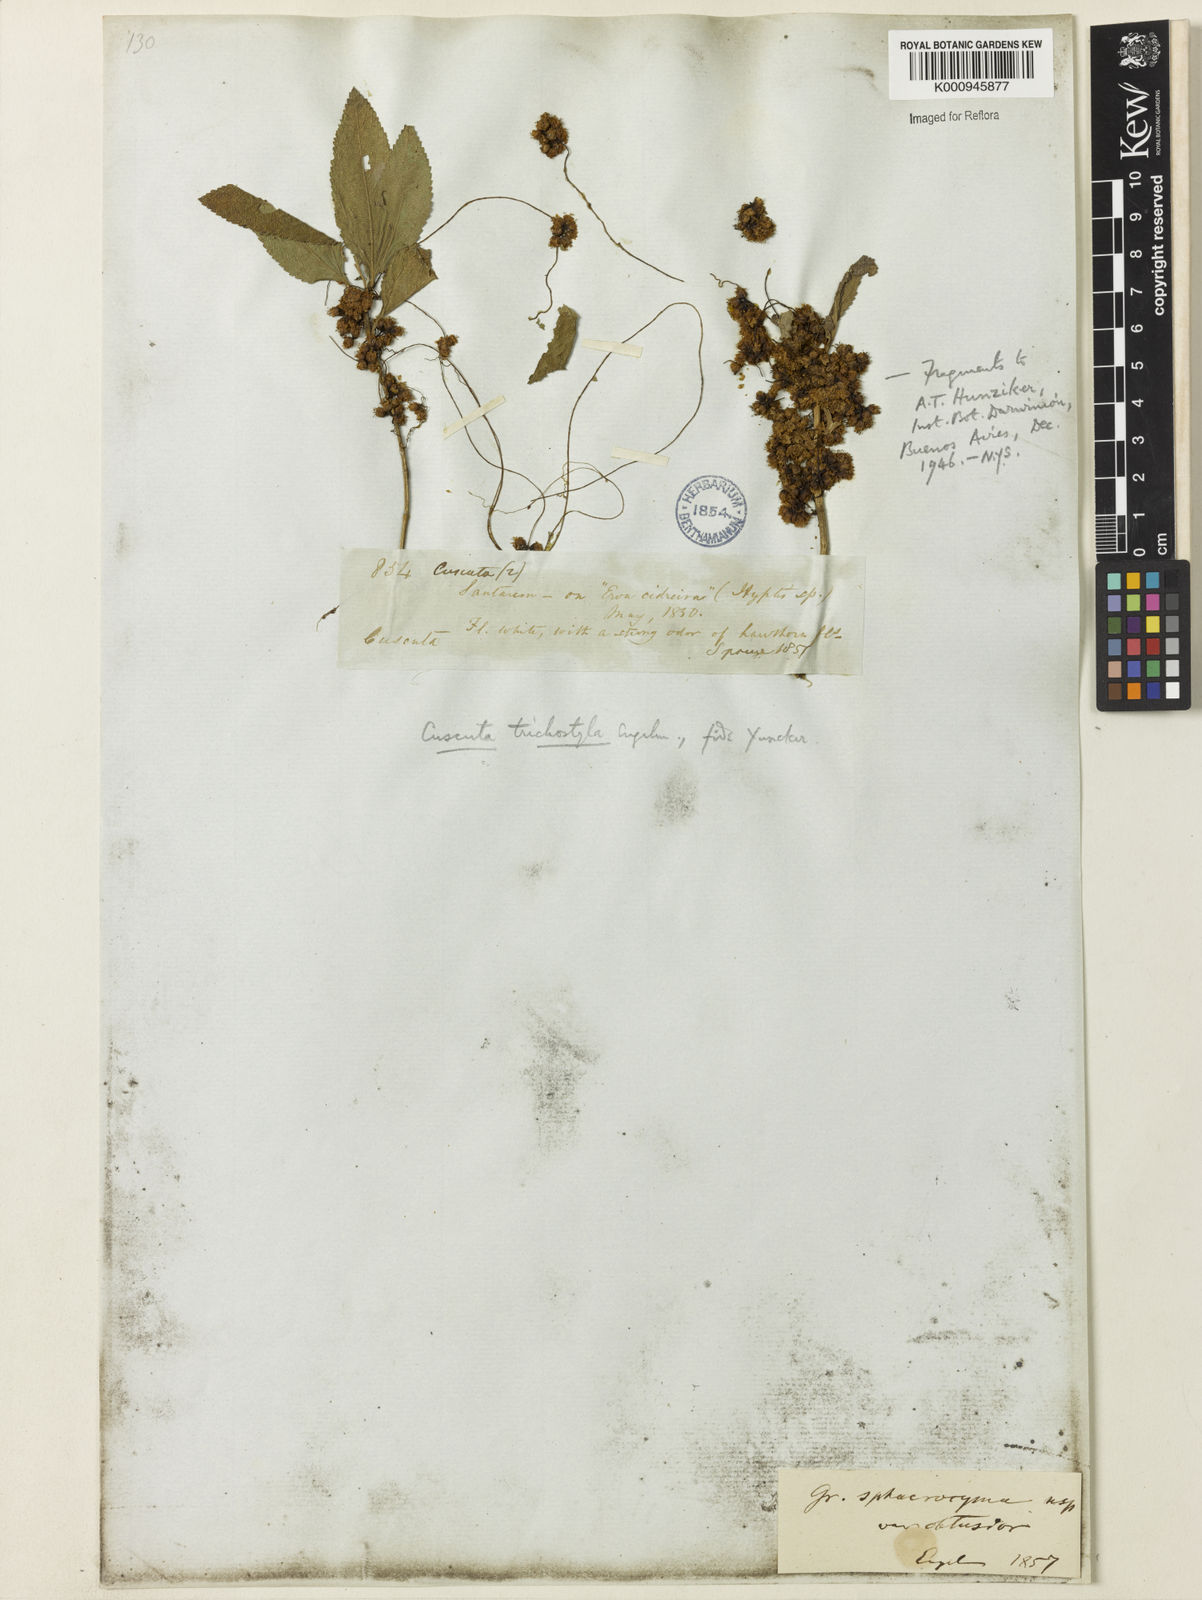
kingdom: Plantae
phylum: Tracheophyta
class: Magnoliopsida
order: Solanales
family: Convolvulaceae
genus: Cuscuta
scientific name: Cuscuta xanthochortos
